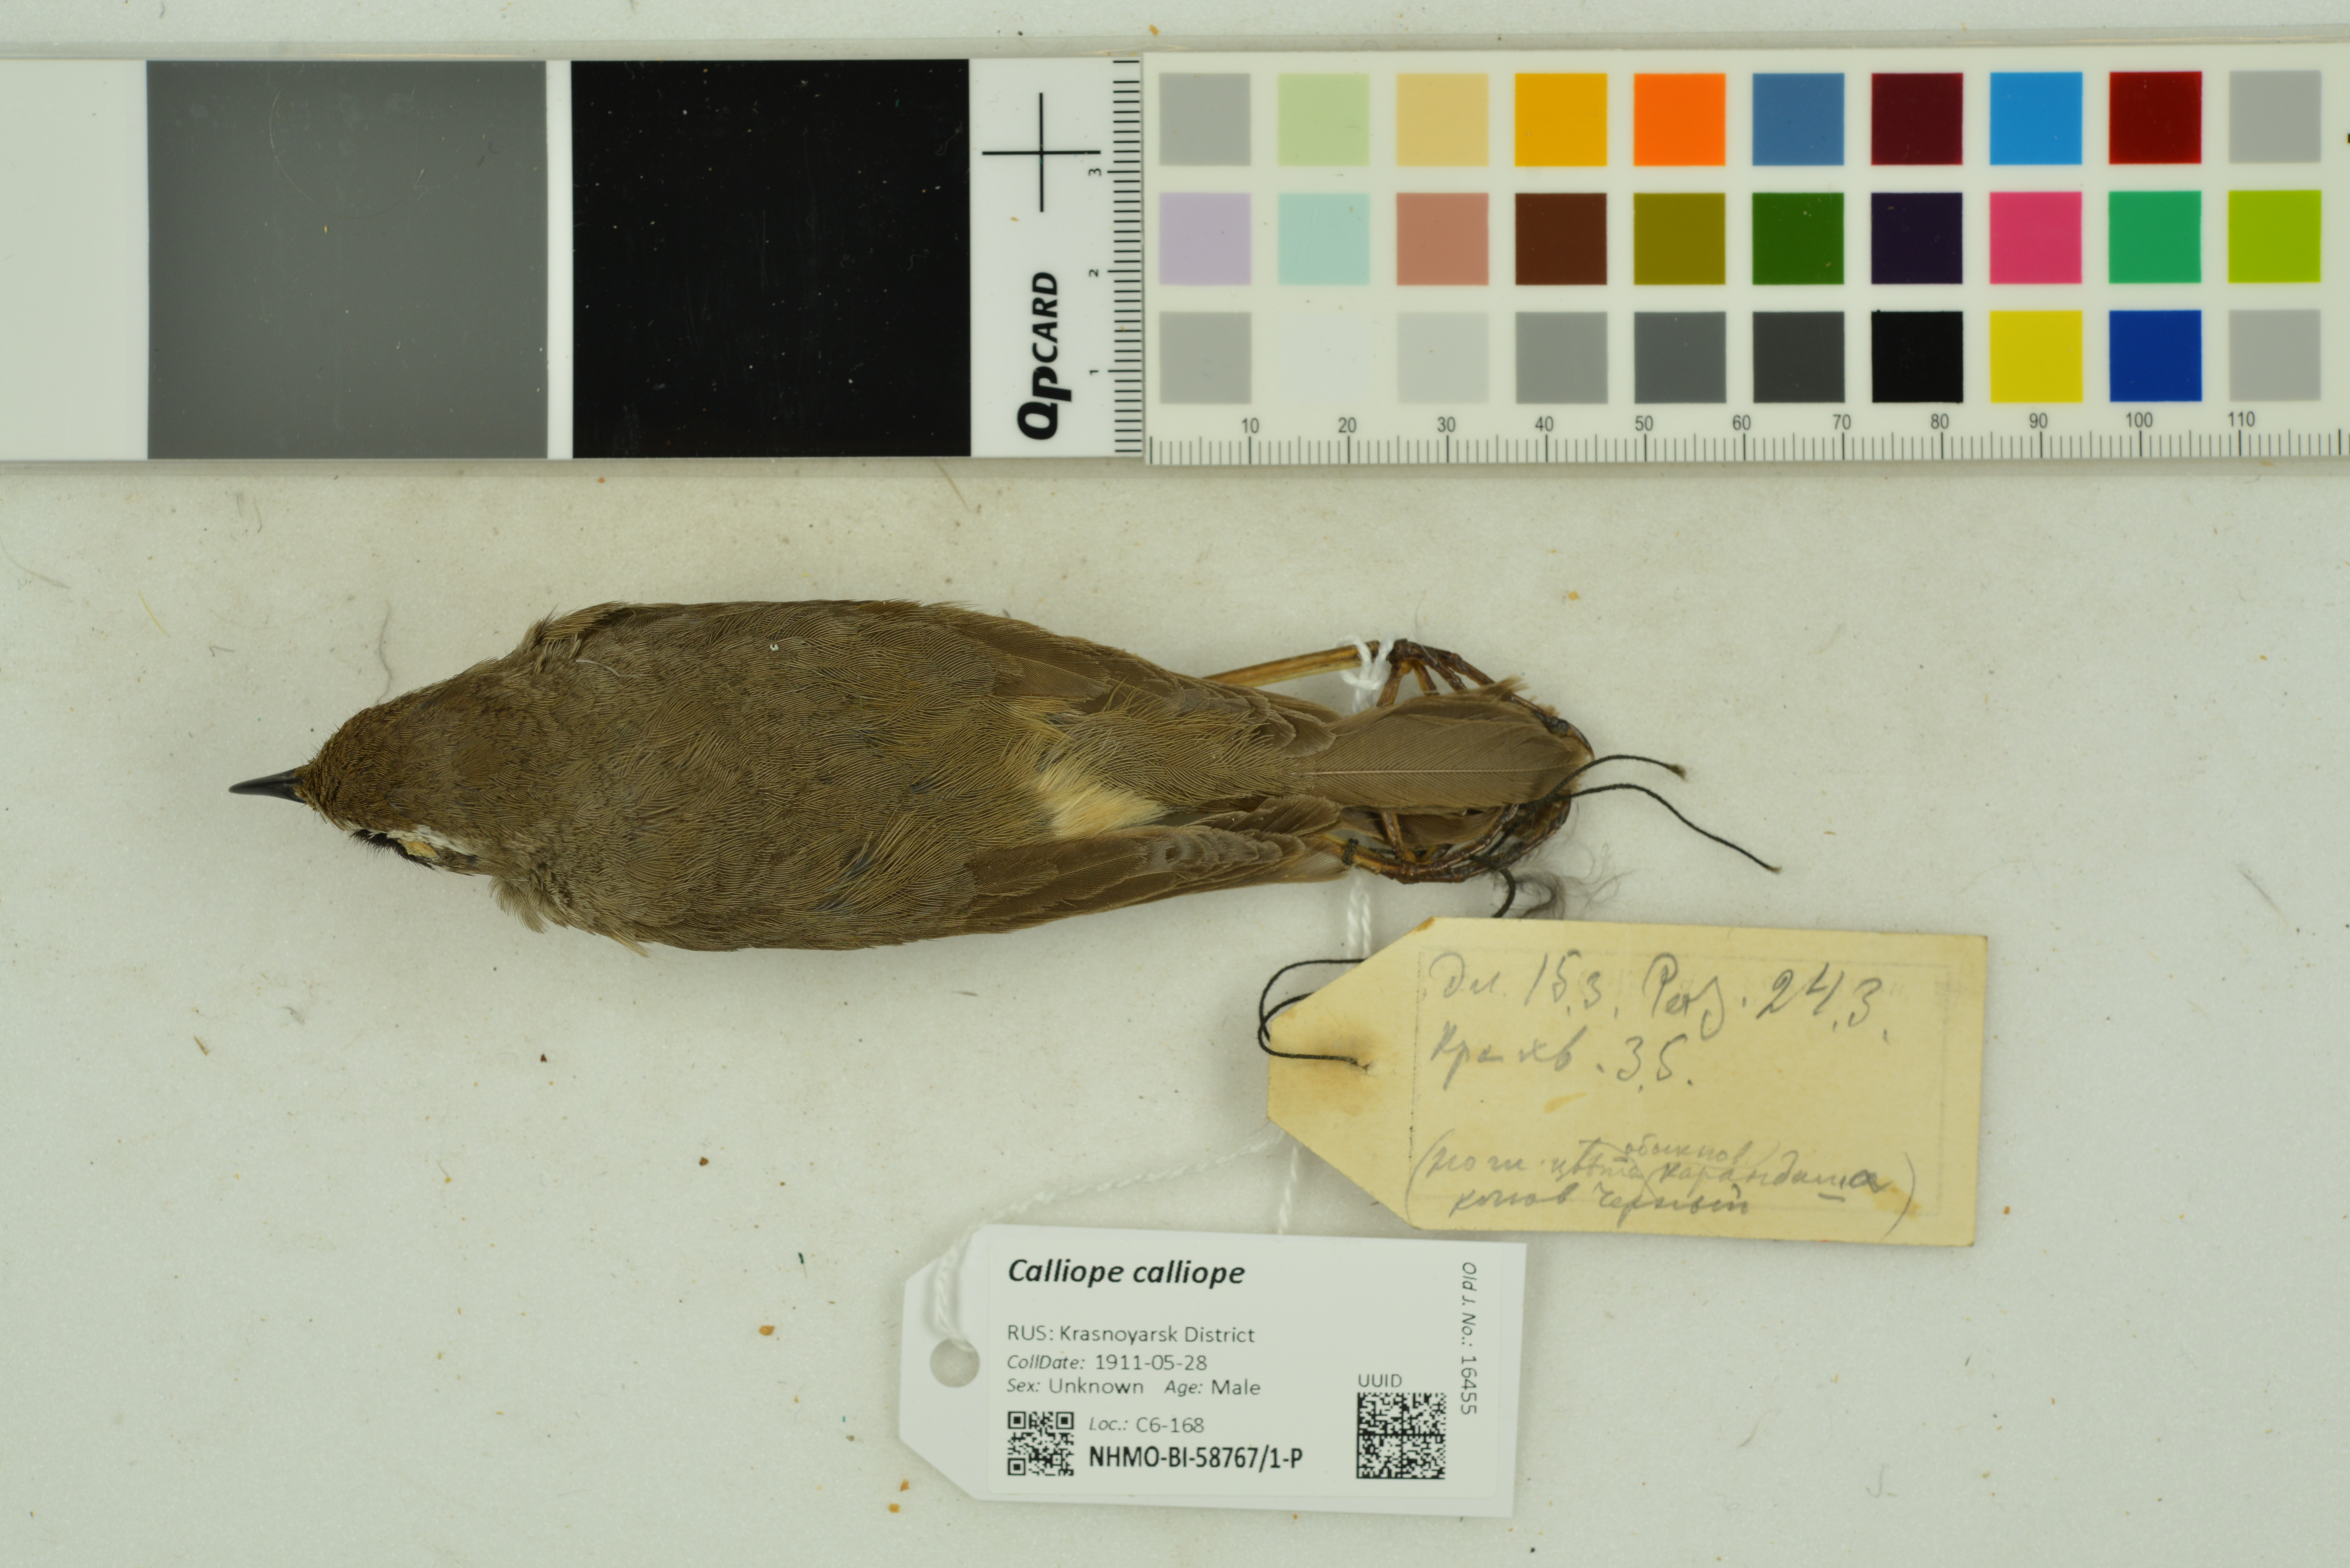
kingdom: Animalia
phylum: Chordata
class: Aves
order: Passeriformes
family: Muscicapidae
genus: Luscinia
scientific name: Luscinia calliope
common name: Siberian rubythroat
